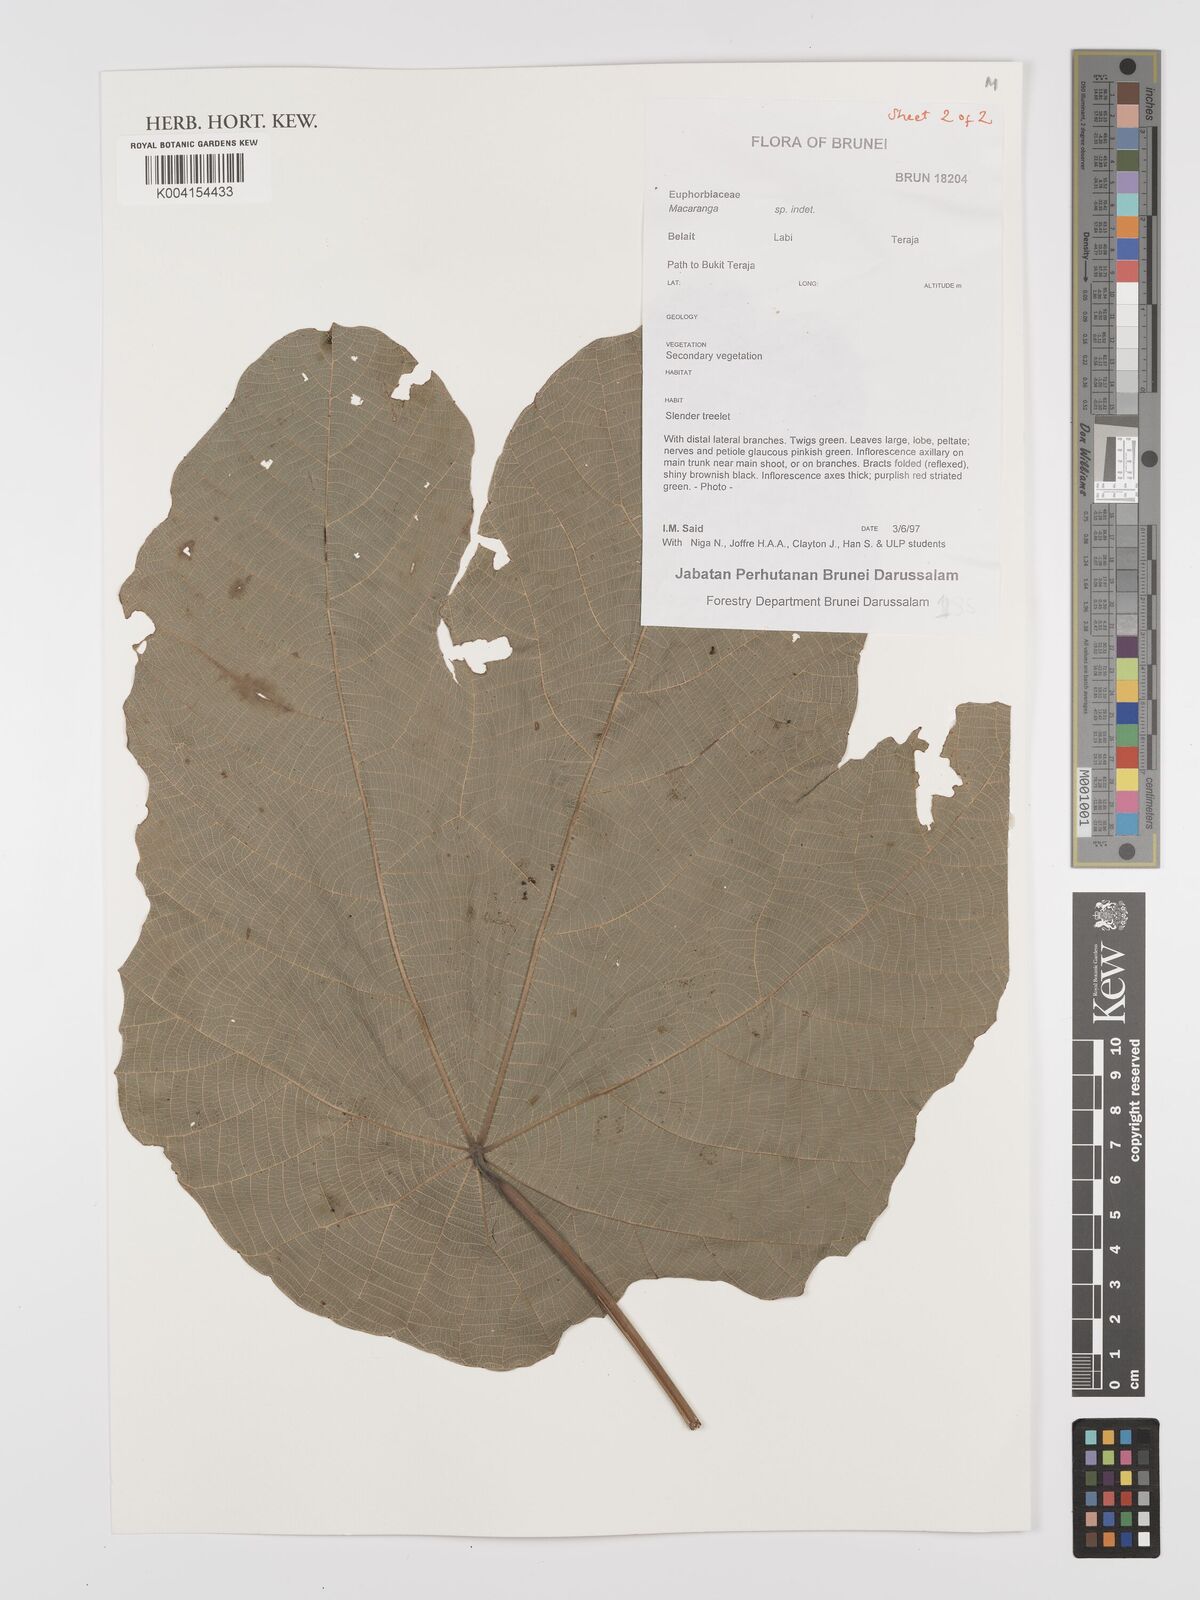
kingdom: Plantae
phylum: Tracheophyta
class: Magnoliopsida
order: Malpighiales
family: Euphorbiaceae
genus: Macaranga
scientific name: Macaranga
